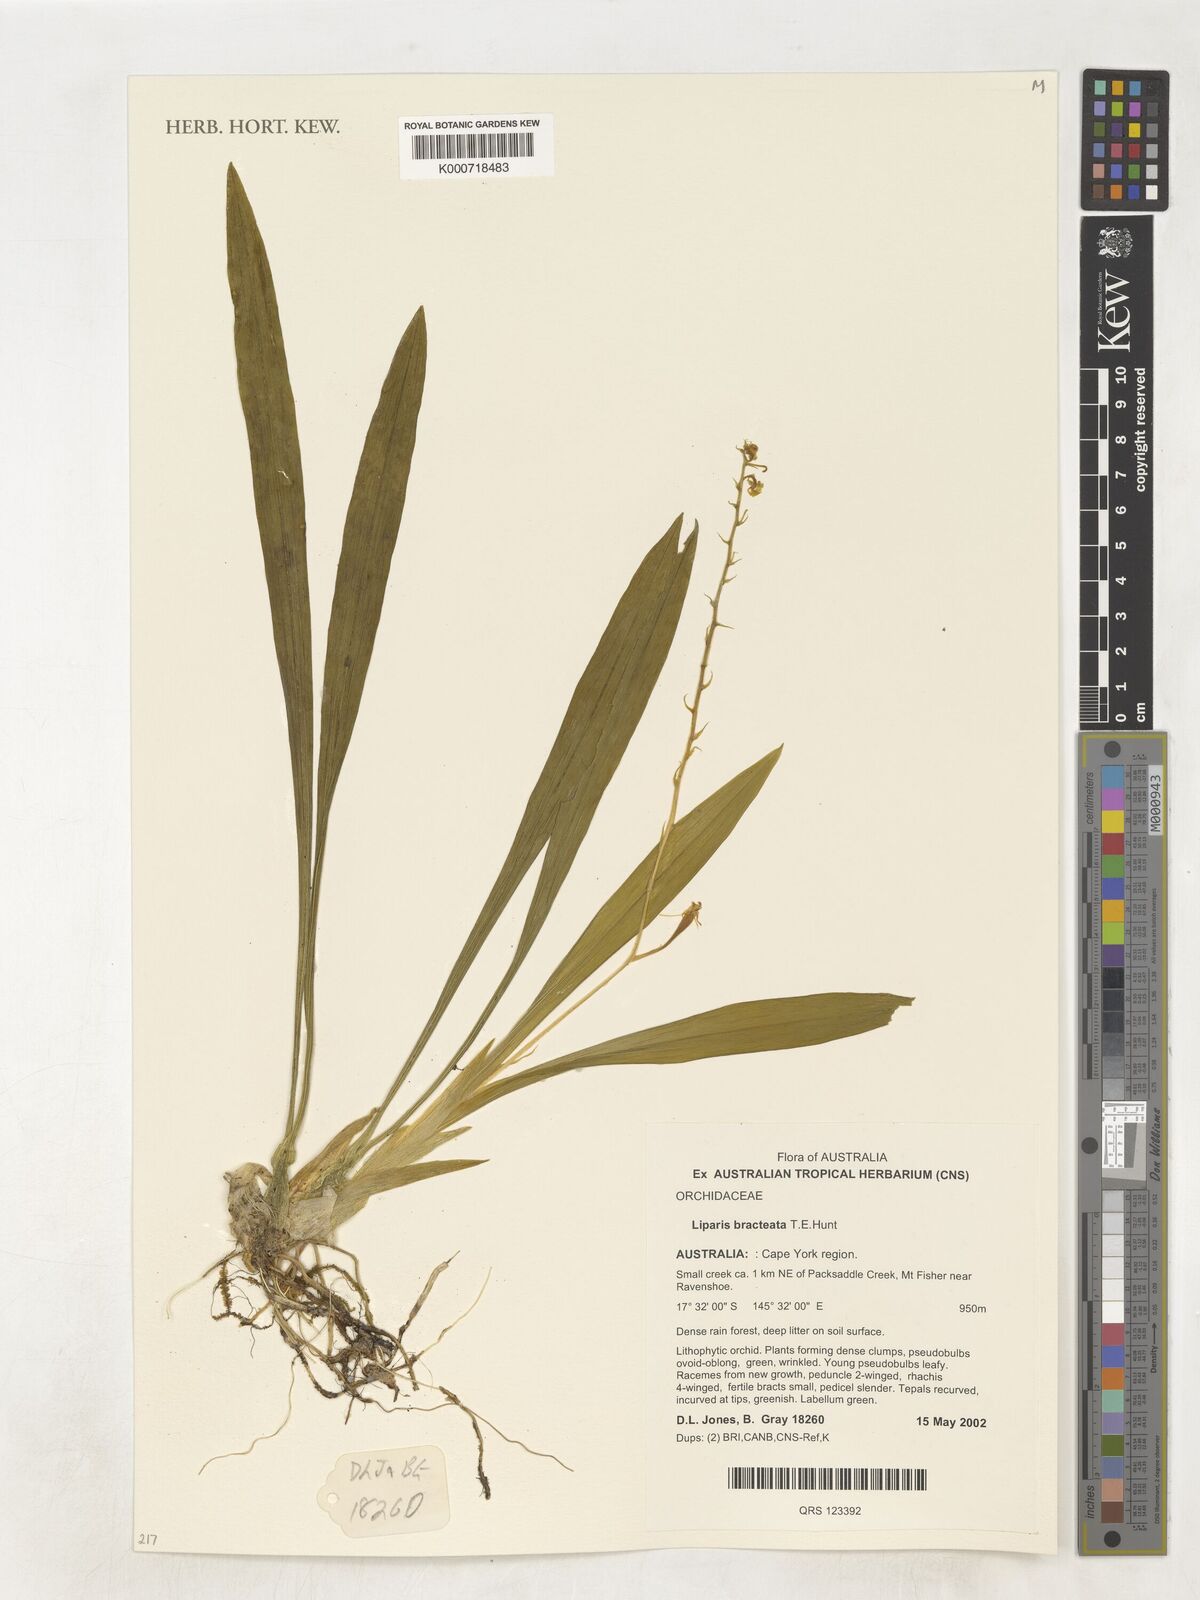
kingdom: Plantae
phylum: Tracheophyta
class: Liliopsida
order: Asparagales
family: Orchidaceae
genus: Liparis
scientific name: Liparis bracteata
